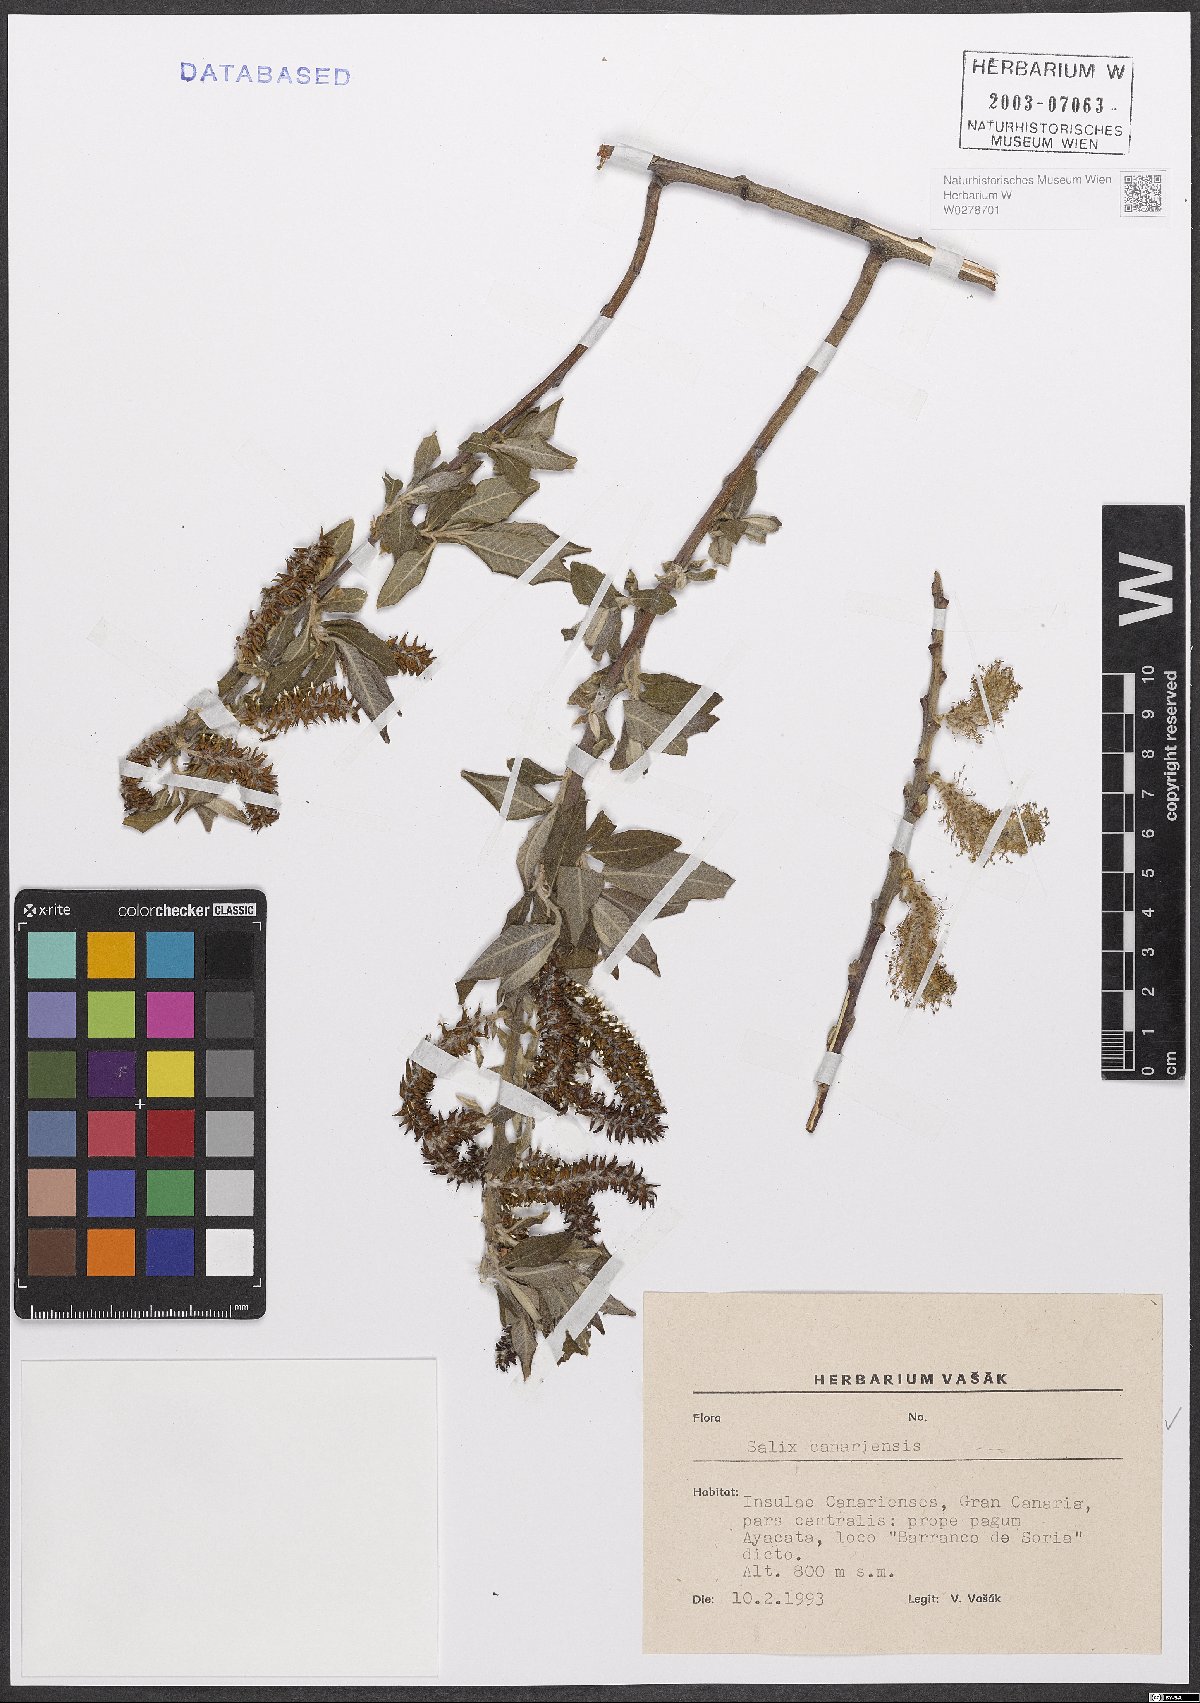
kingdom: Plantae
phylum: Tracheophyta
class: Magnoliopsida
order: Malpighiales
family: Salicaceae
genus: Salix
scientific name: Salix canariensis
